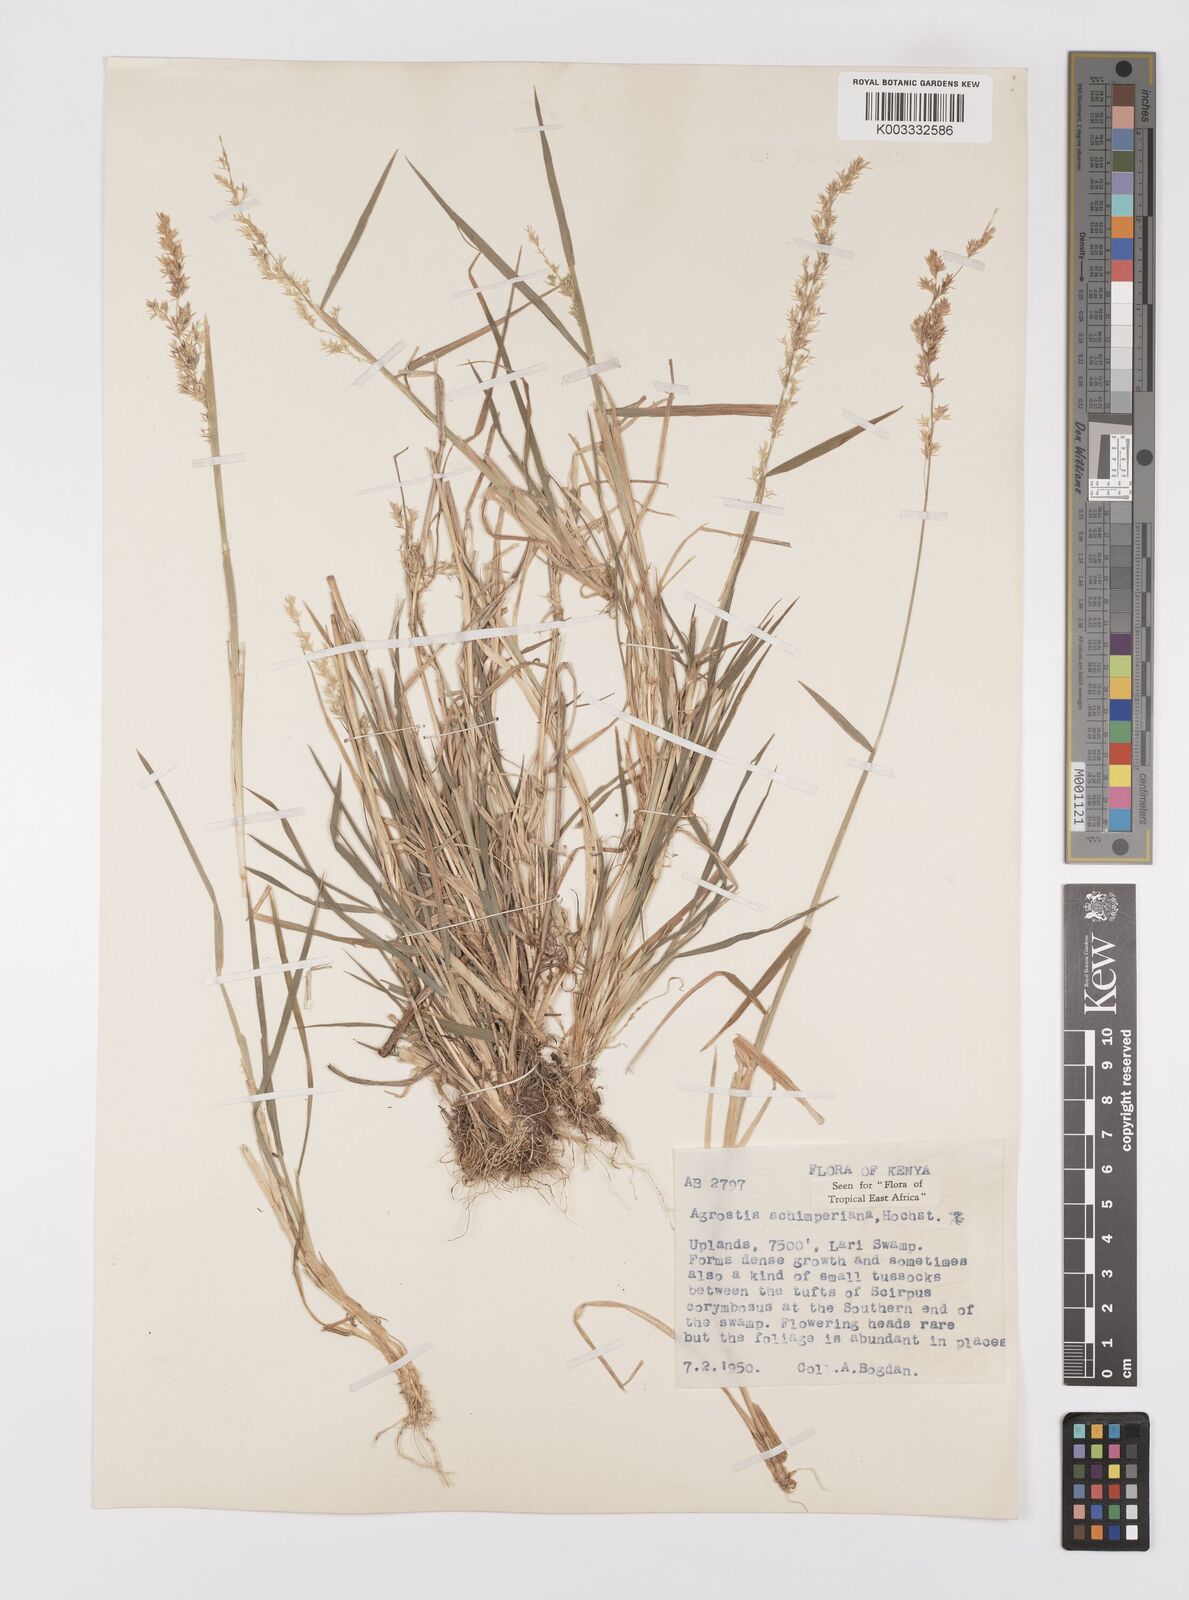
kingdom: Plantae
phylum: Tracheophyta
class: Liliopsida
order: Poales
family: Poaceae
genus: Polypogon
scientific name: Polypogon schimperianus
